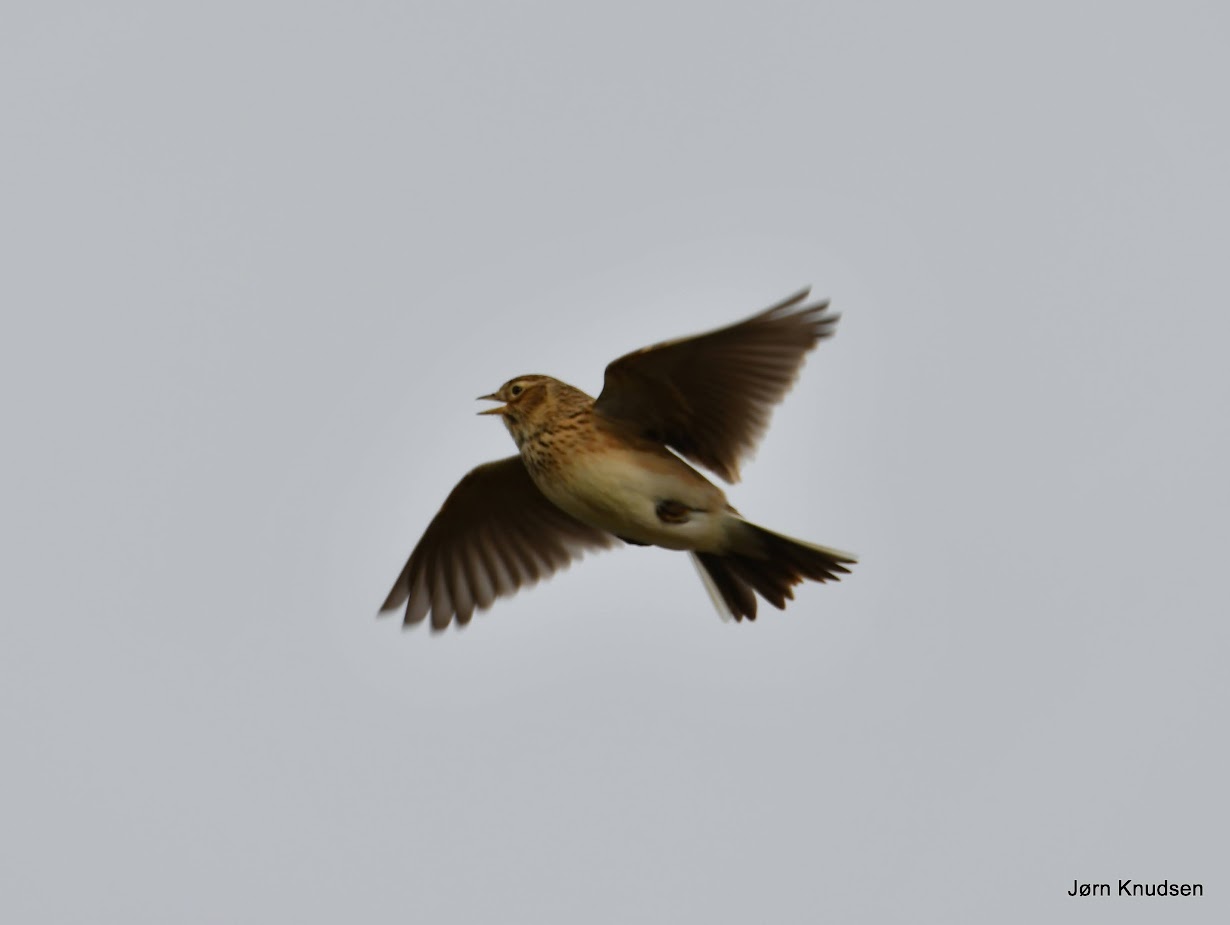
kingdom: Animalia
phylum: Chordata
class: Aves
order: Passeriformes
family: Alaudidae
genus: Alauda
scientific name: Alauda arvensis
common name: Sanglærke
